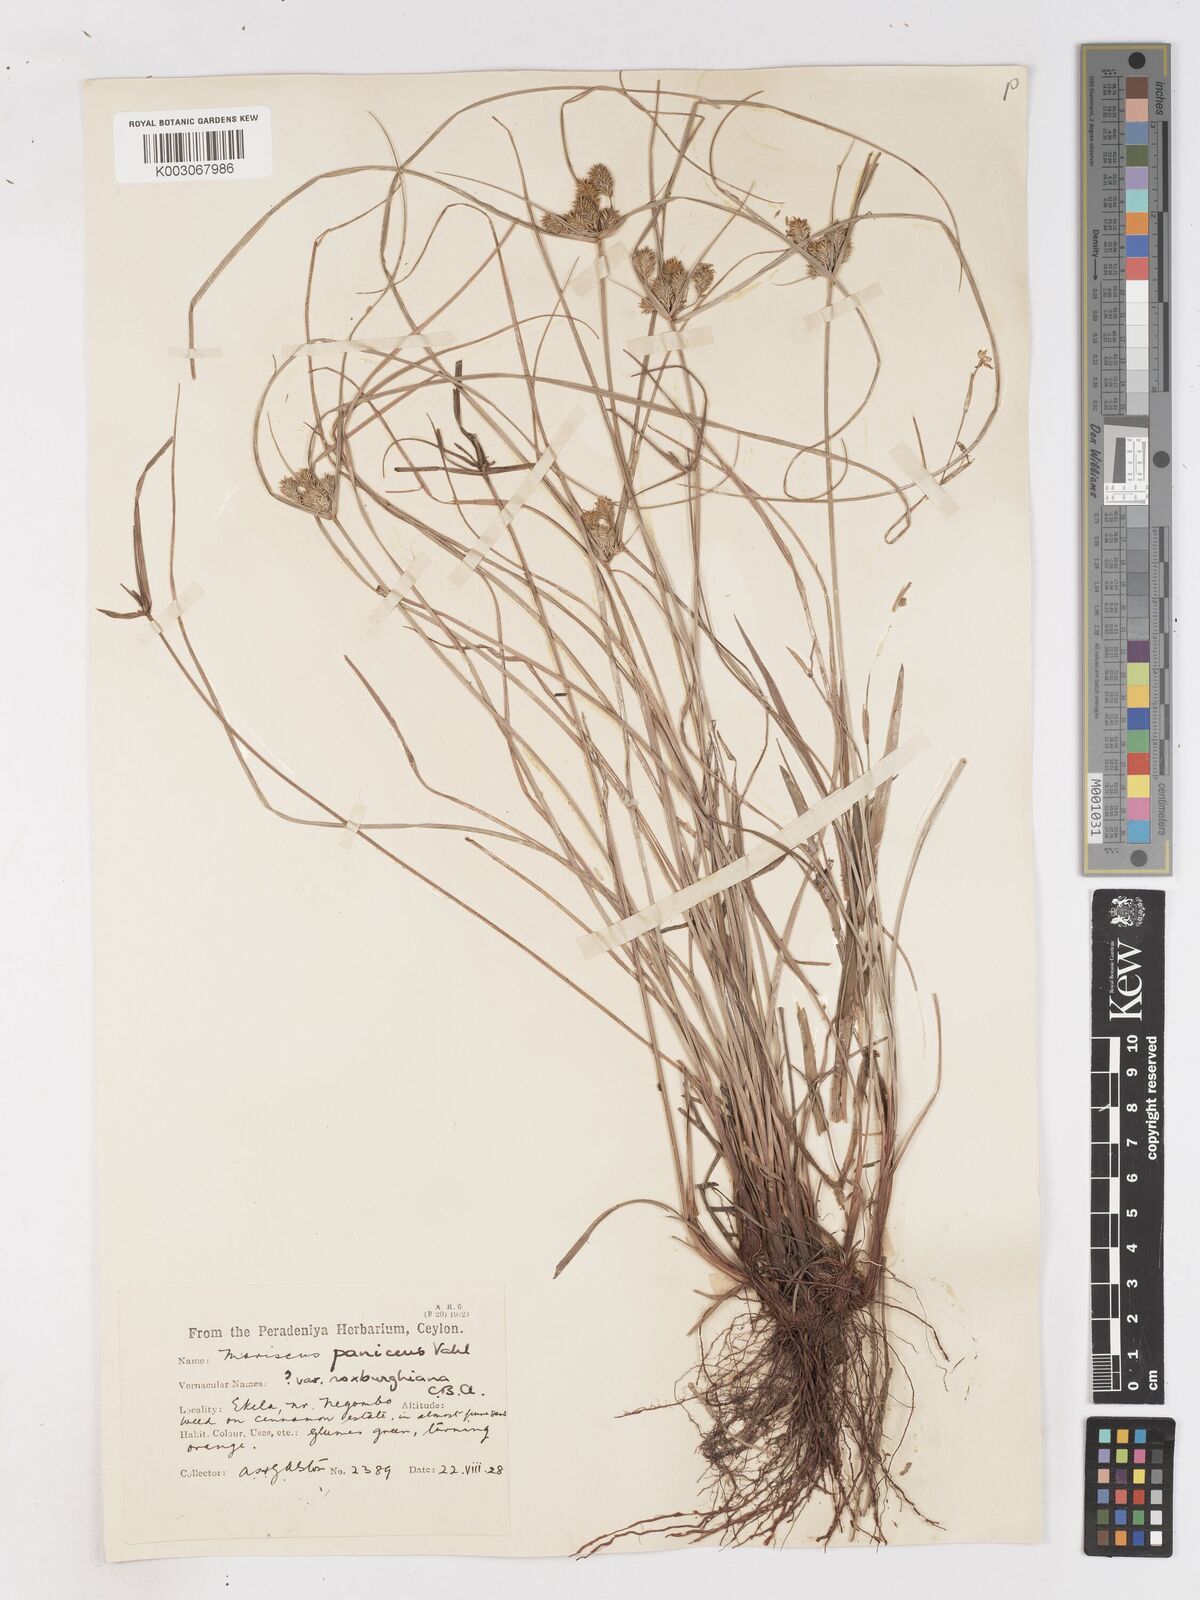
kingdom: Plantae
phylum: Tracheophyta
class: Liliopsida
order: Poales
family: Cyperaceae
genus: Cyperus
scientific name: Cyperus paniceus
